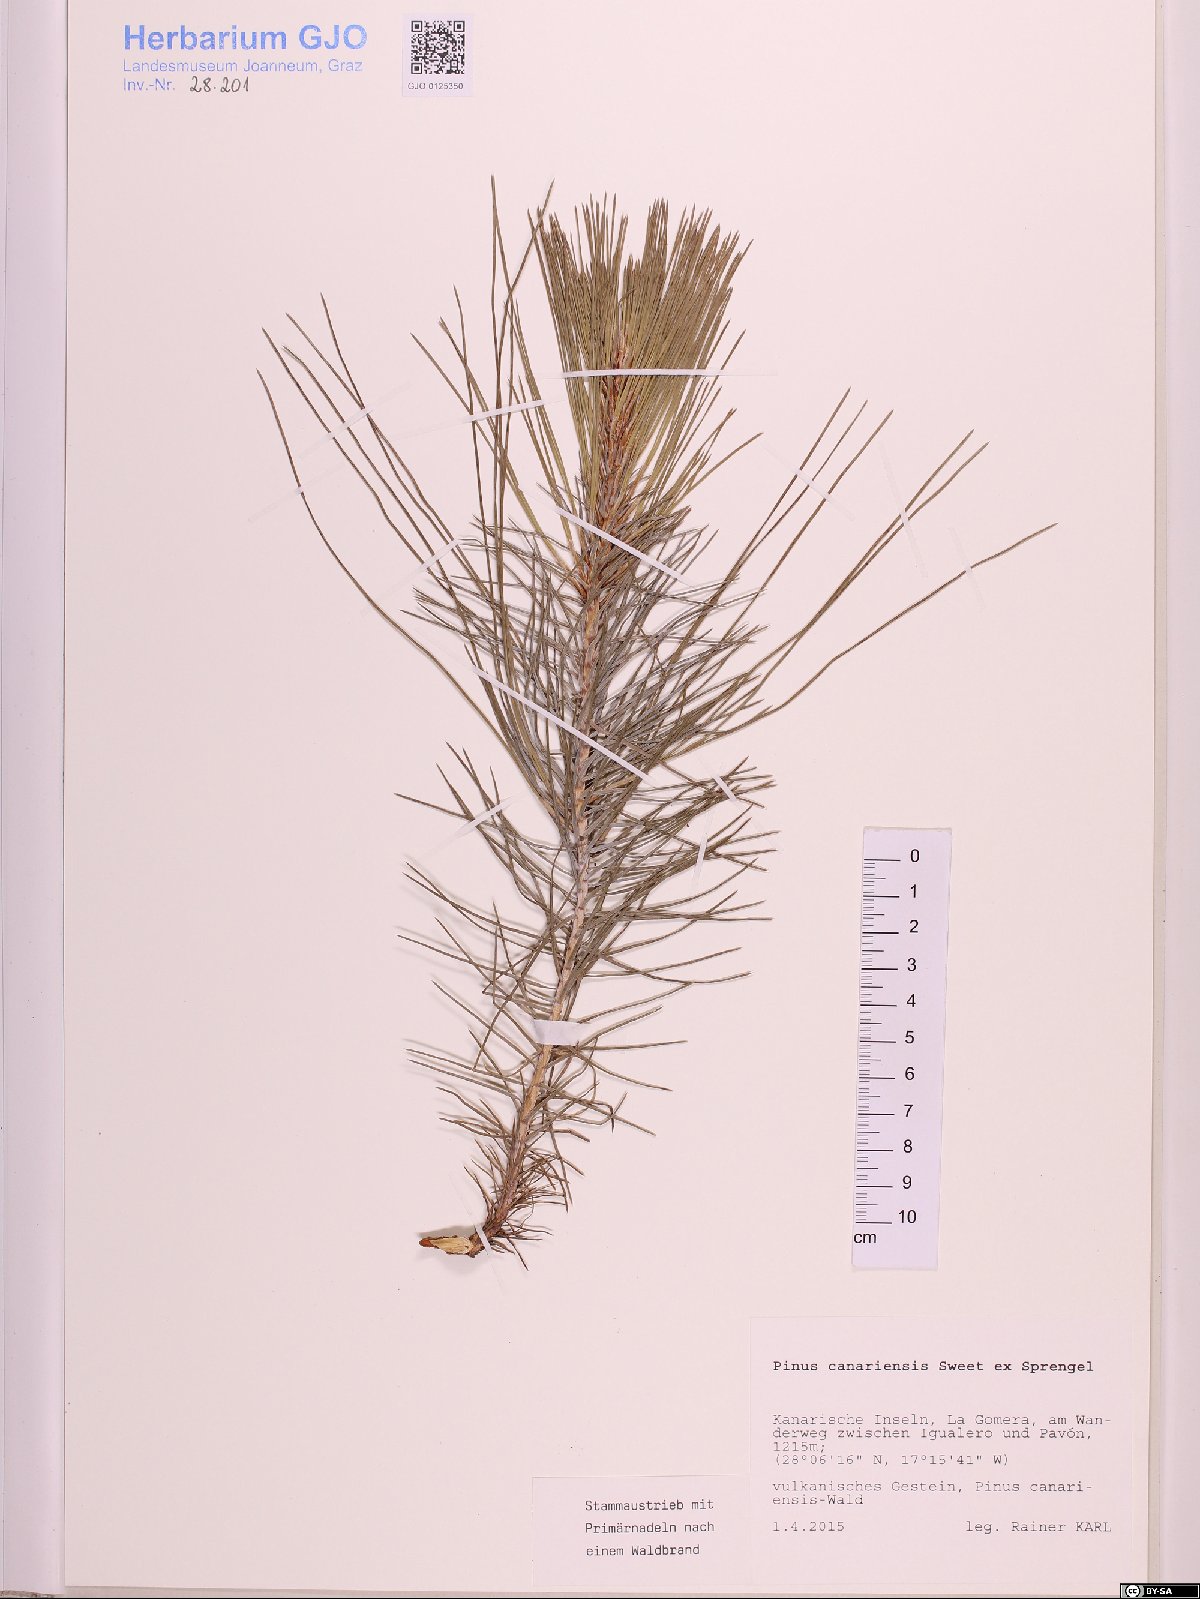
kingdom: Plantae
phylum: Tracheophyta
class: Pinopsida
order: Pinales
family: Pinaceae
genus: Pinus
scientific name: Pinus canariensis
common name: Canary islands pine
